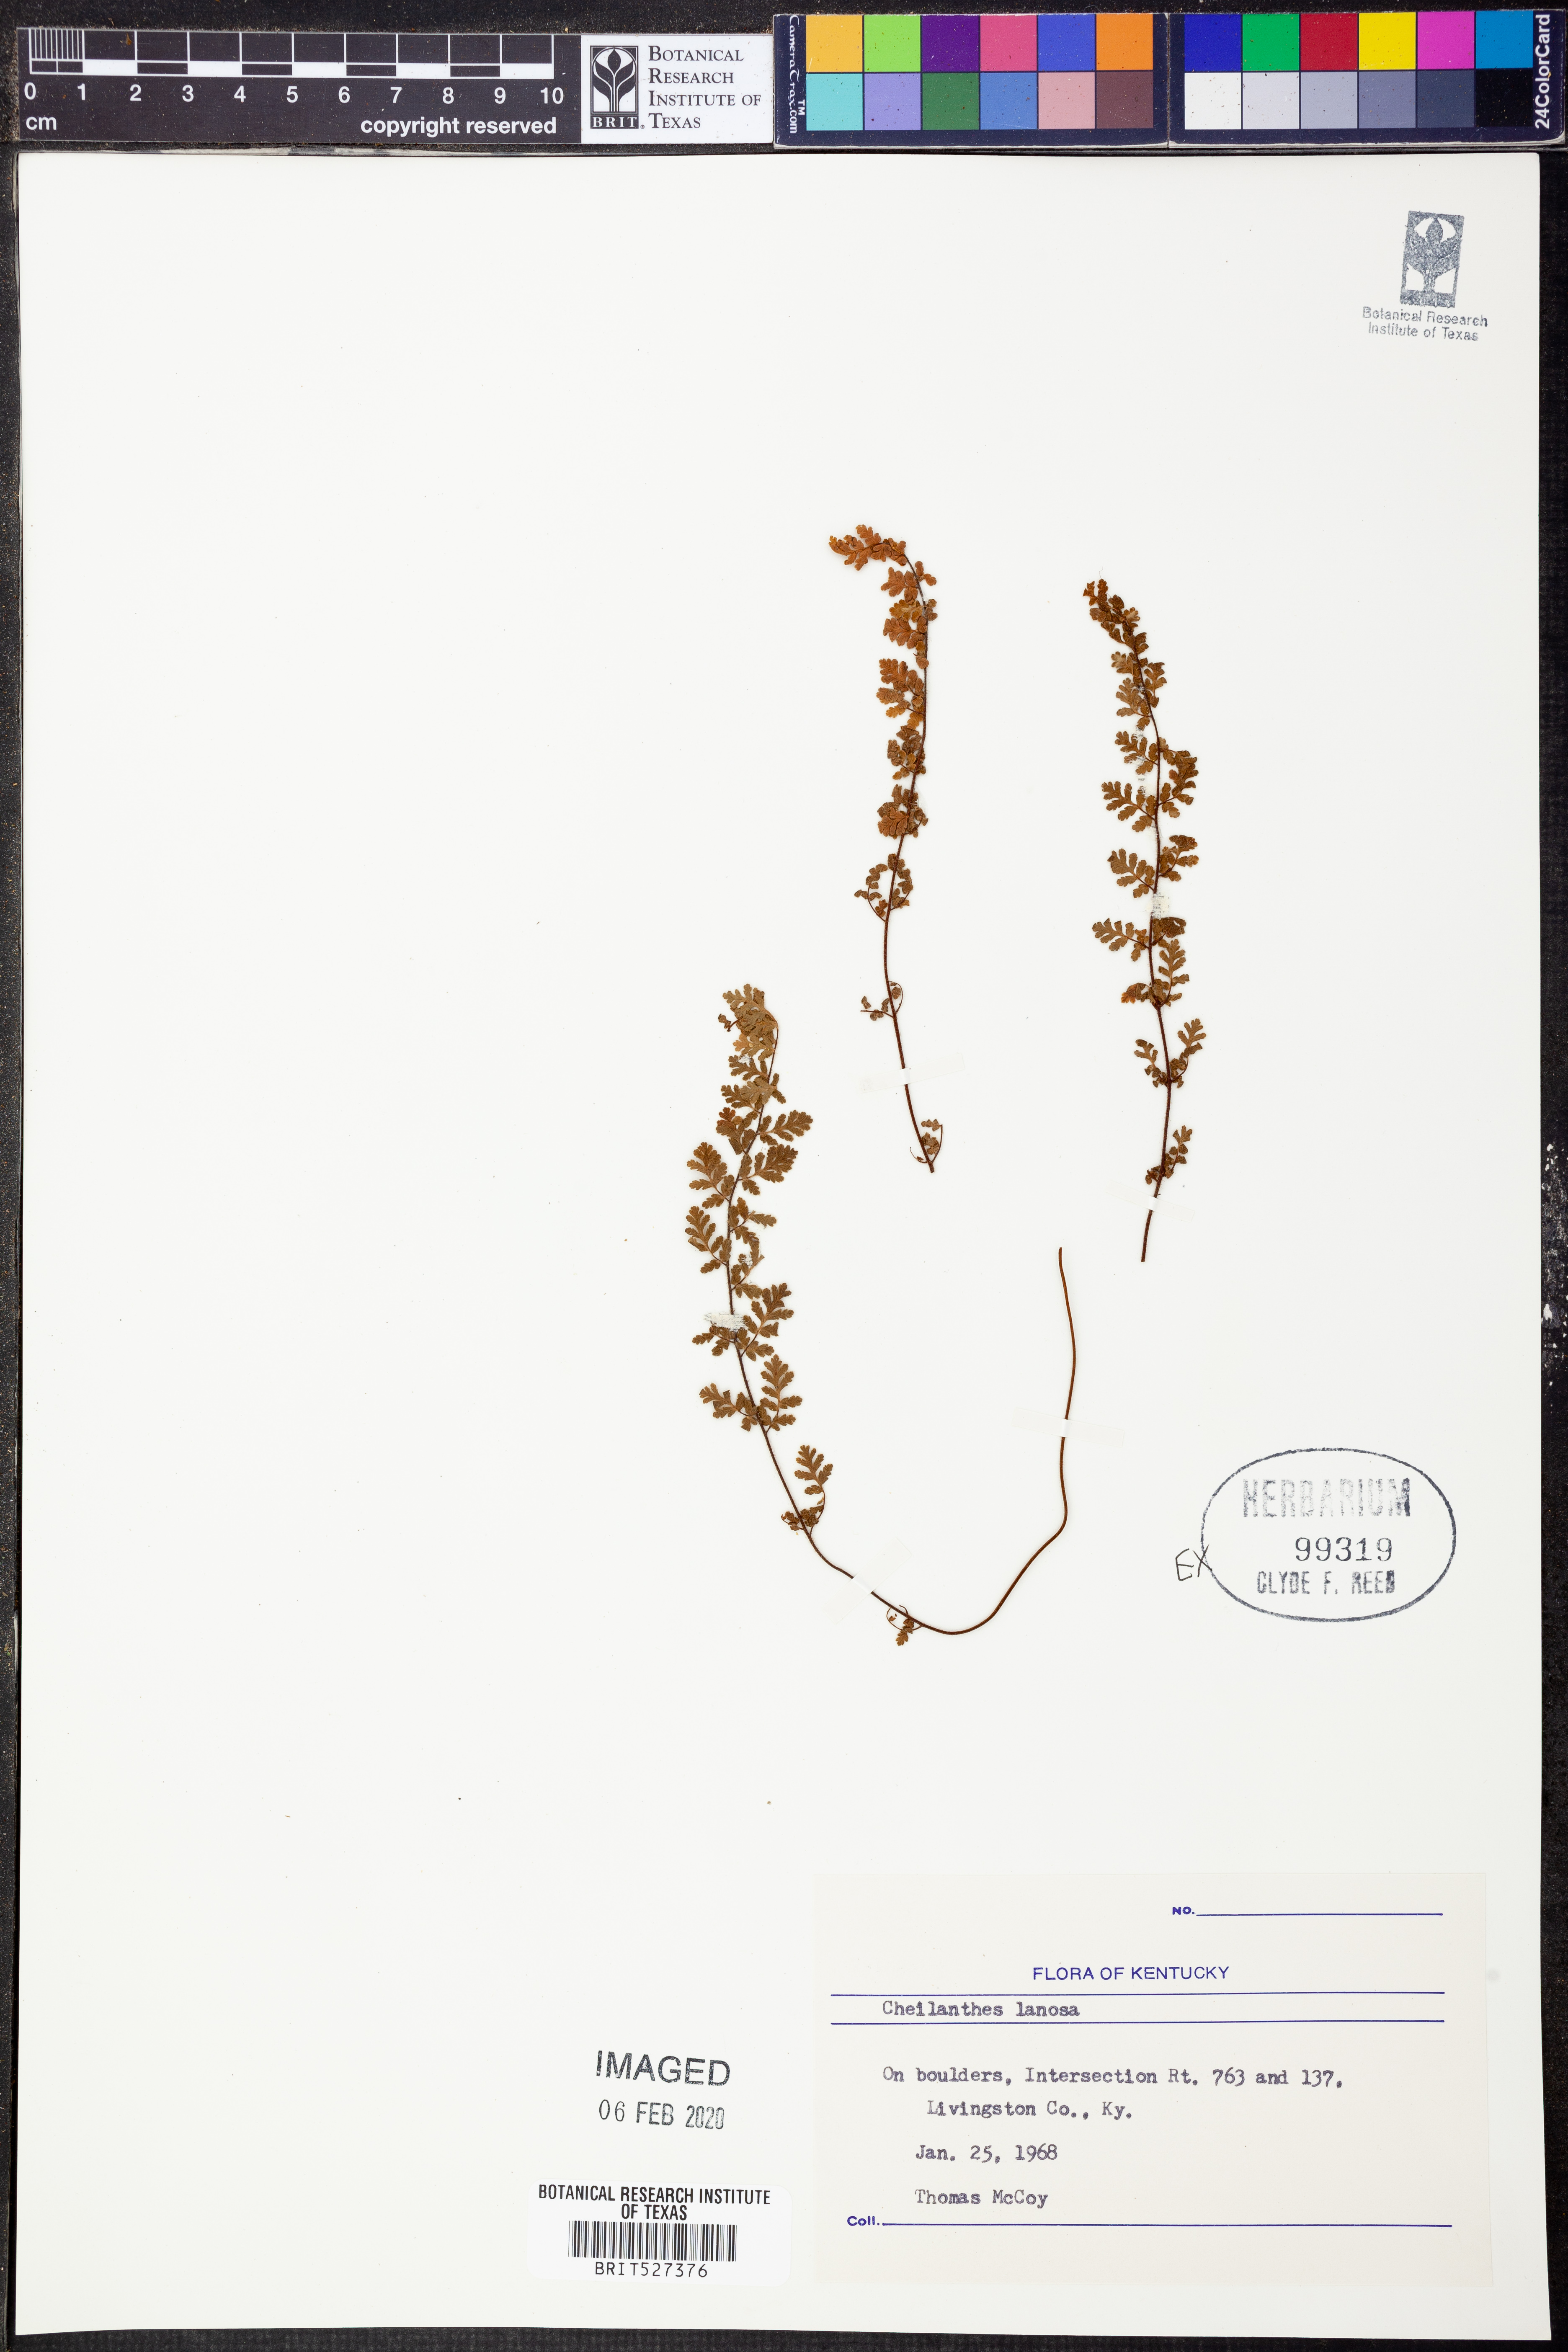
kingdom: Plantae
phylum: Tracheophyta
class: Polypodiopsida
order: Polypodiales
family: Pteridaceae
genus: Myriopteris
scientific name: Myriopteris lanosa
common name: Hairy lip fern
